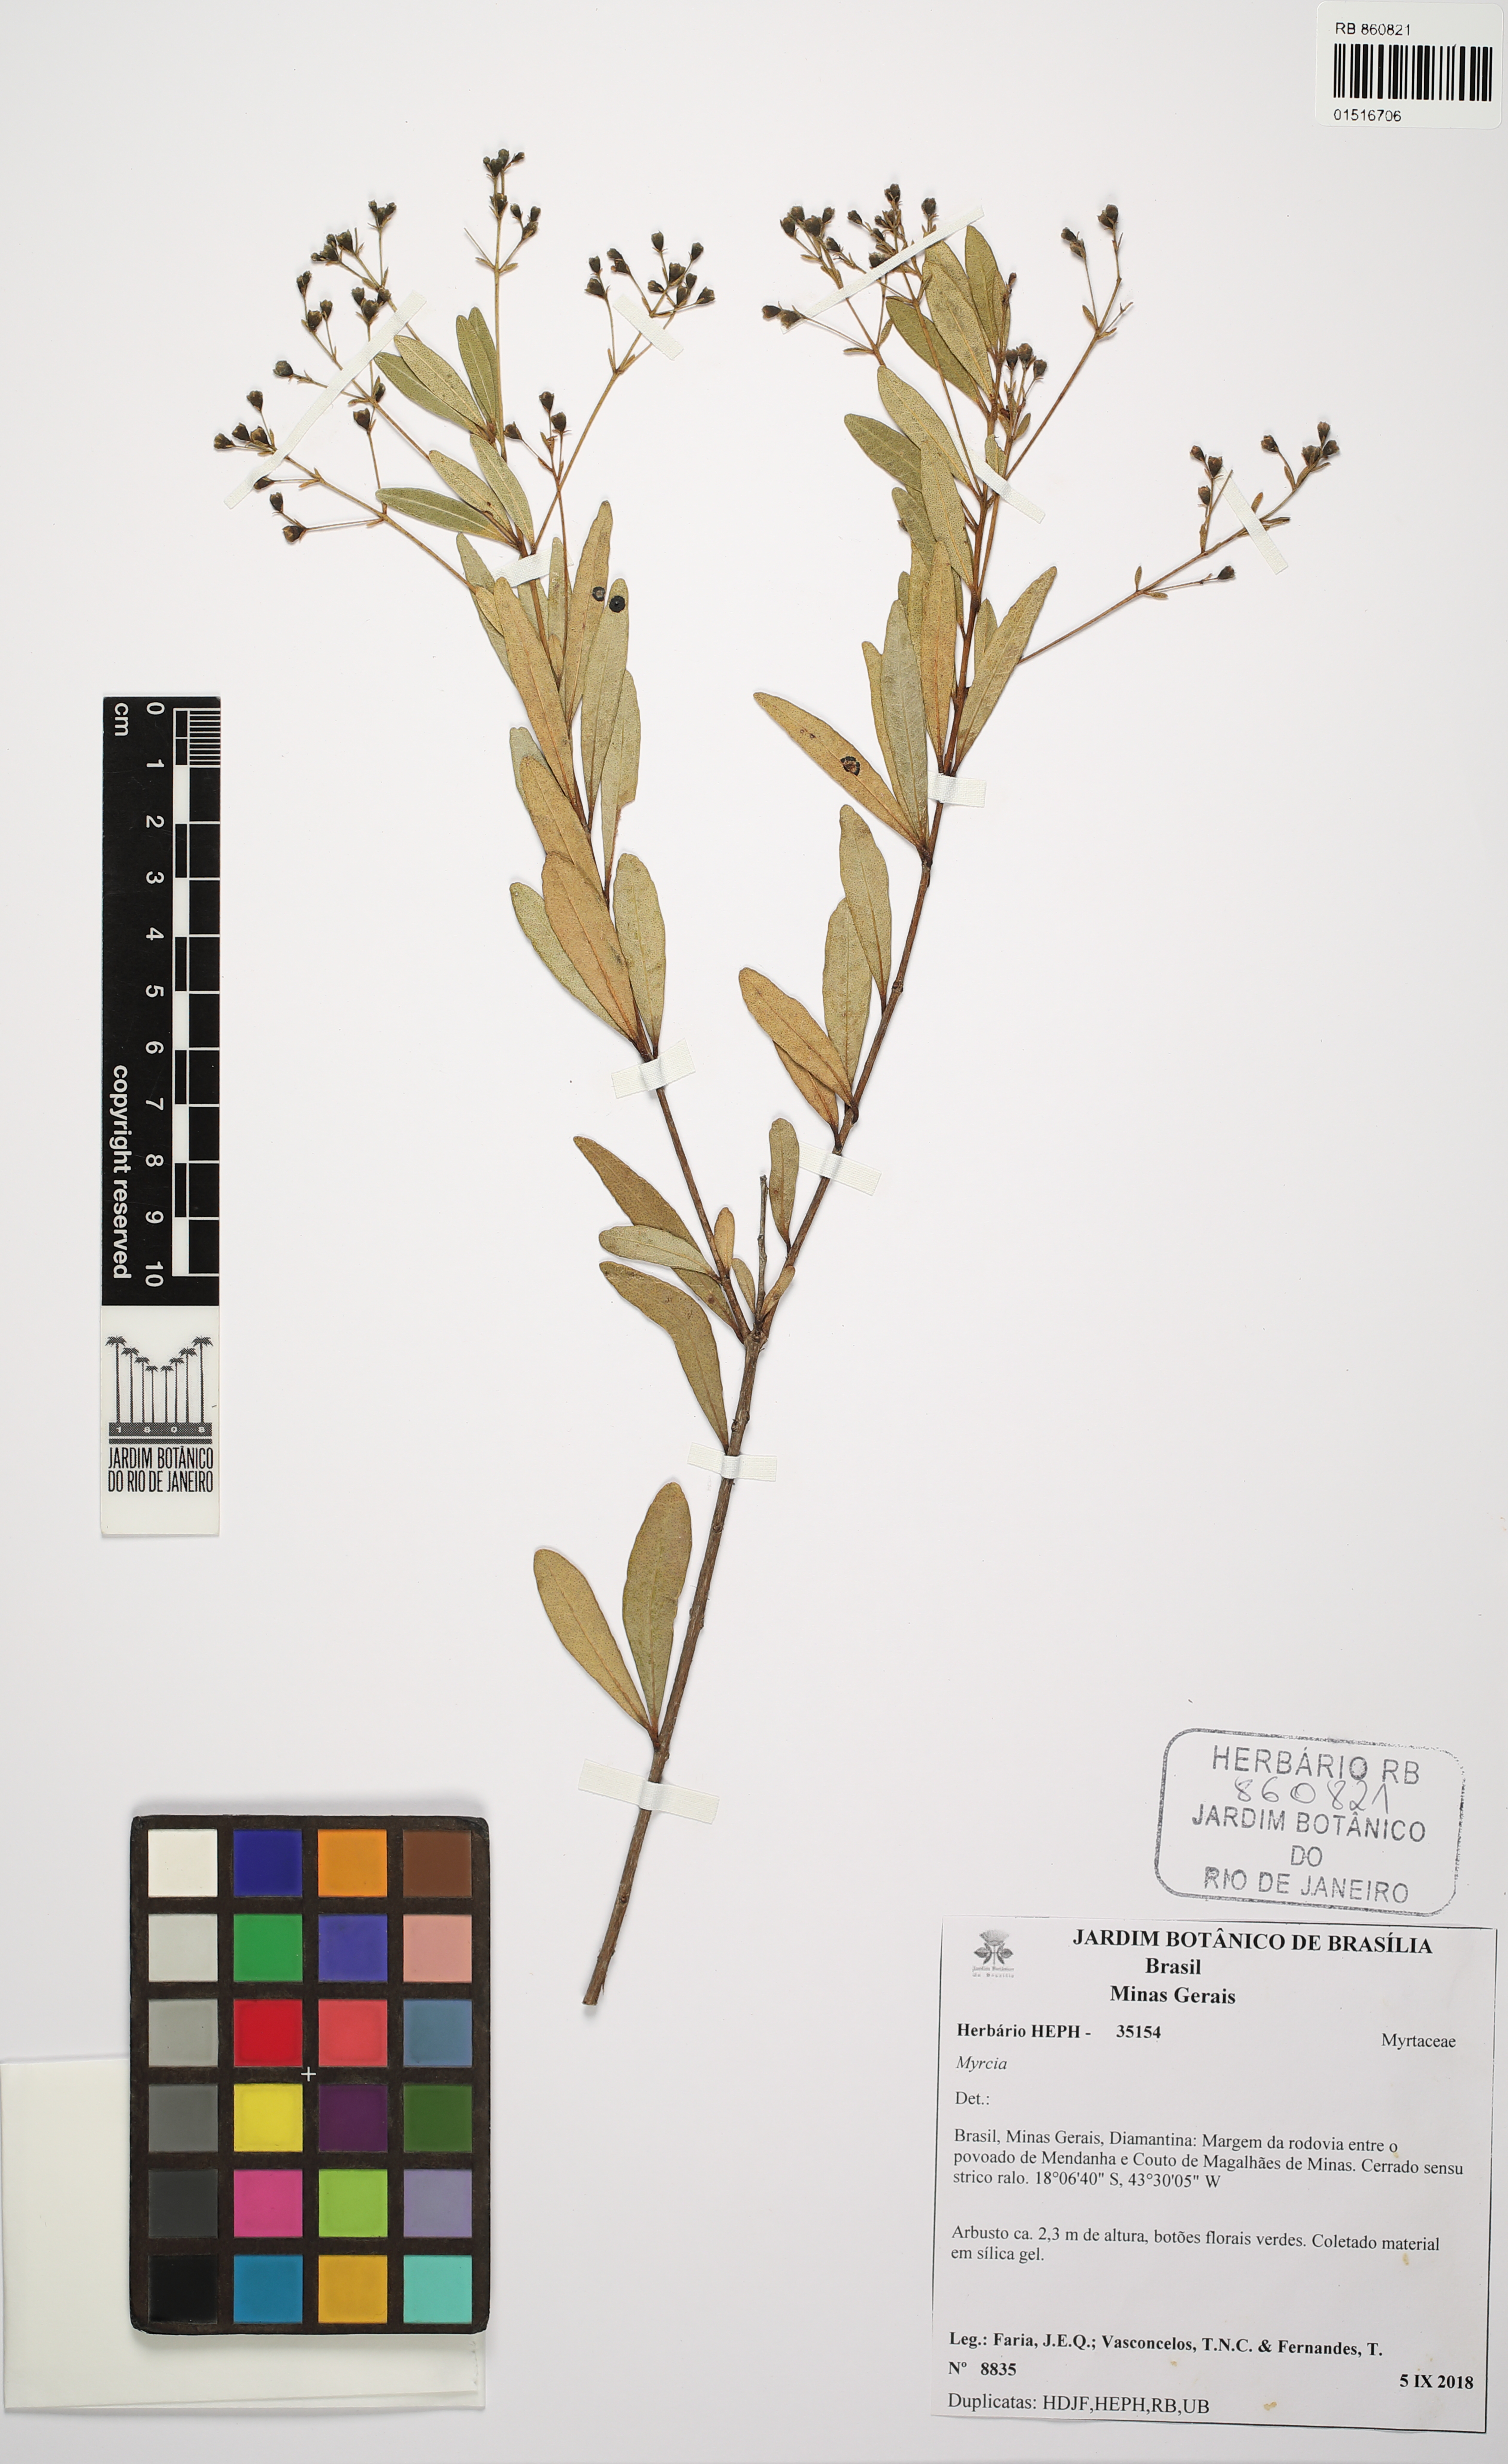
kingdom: Plantae
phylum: Tracheophyta
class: Magnoliopsida
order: Myrtales
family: Myrtaceae
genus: Myrcia
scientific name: Myrcia
